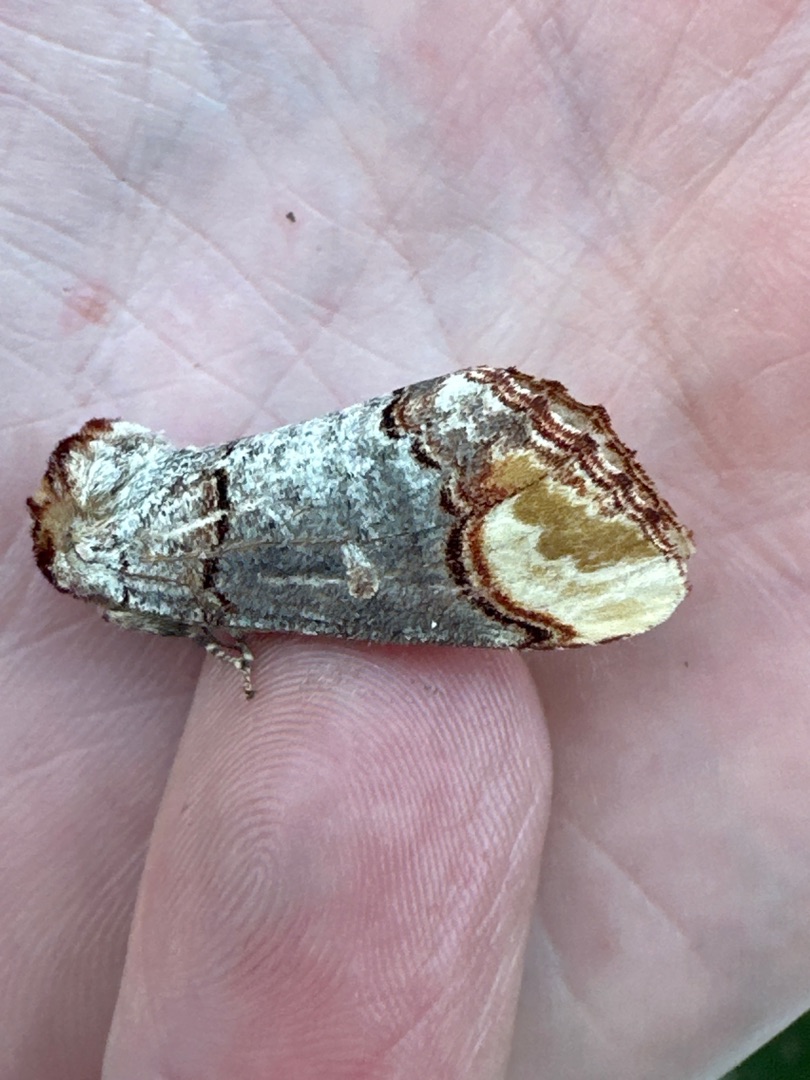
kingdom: Animalia
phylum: Arthropoda
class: Insecta
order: Lepidoptera
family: Notodontidae
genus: Phalera
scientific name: Phalera bucephala
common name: Måneplet
